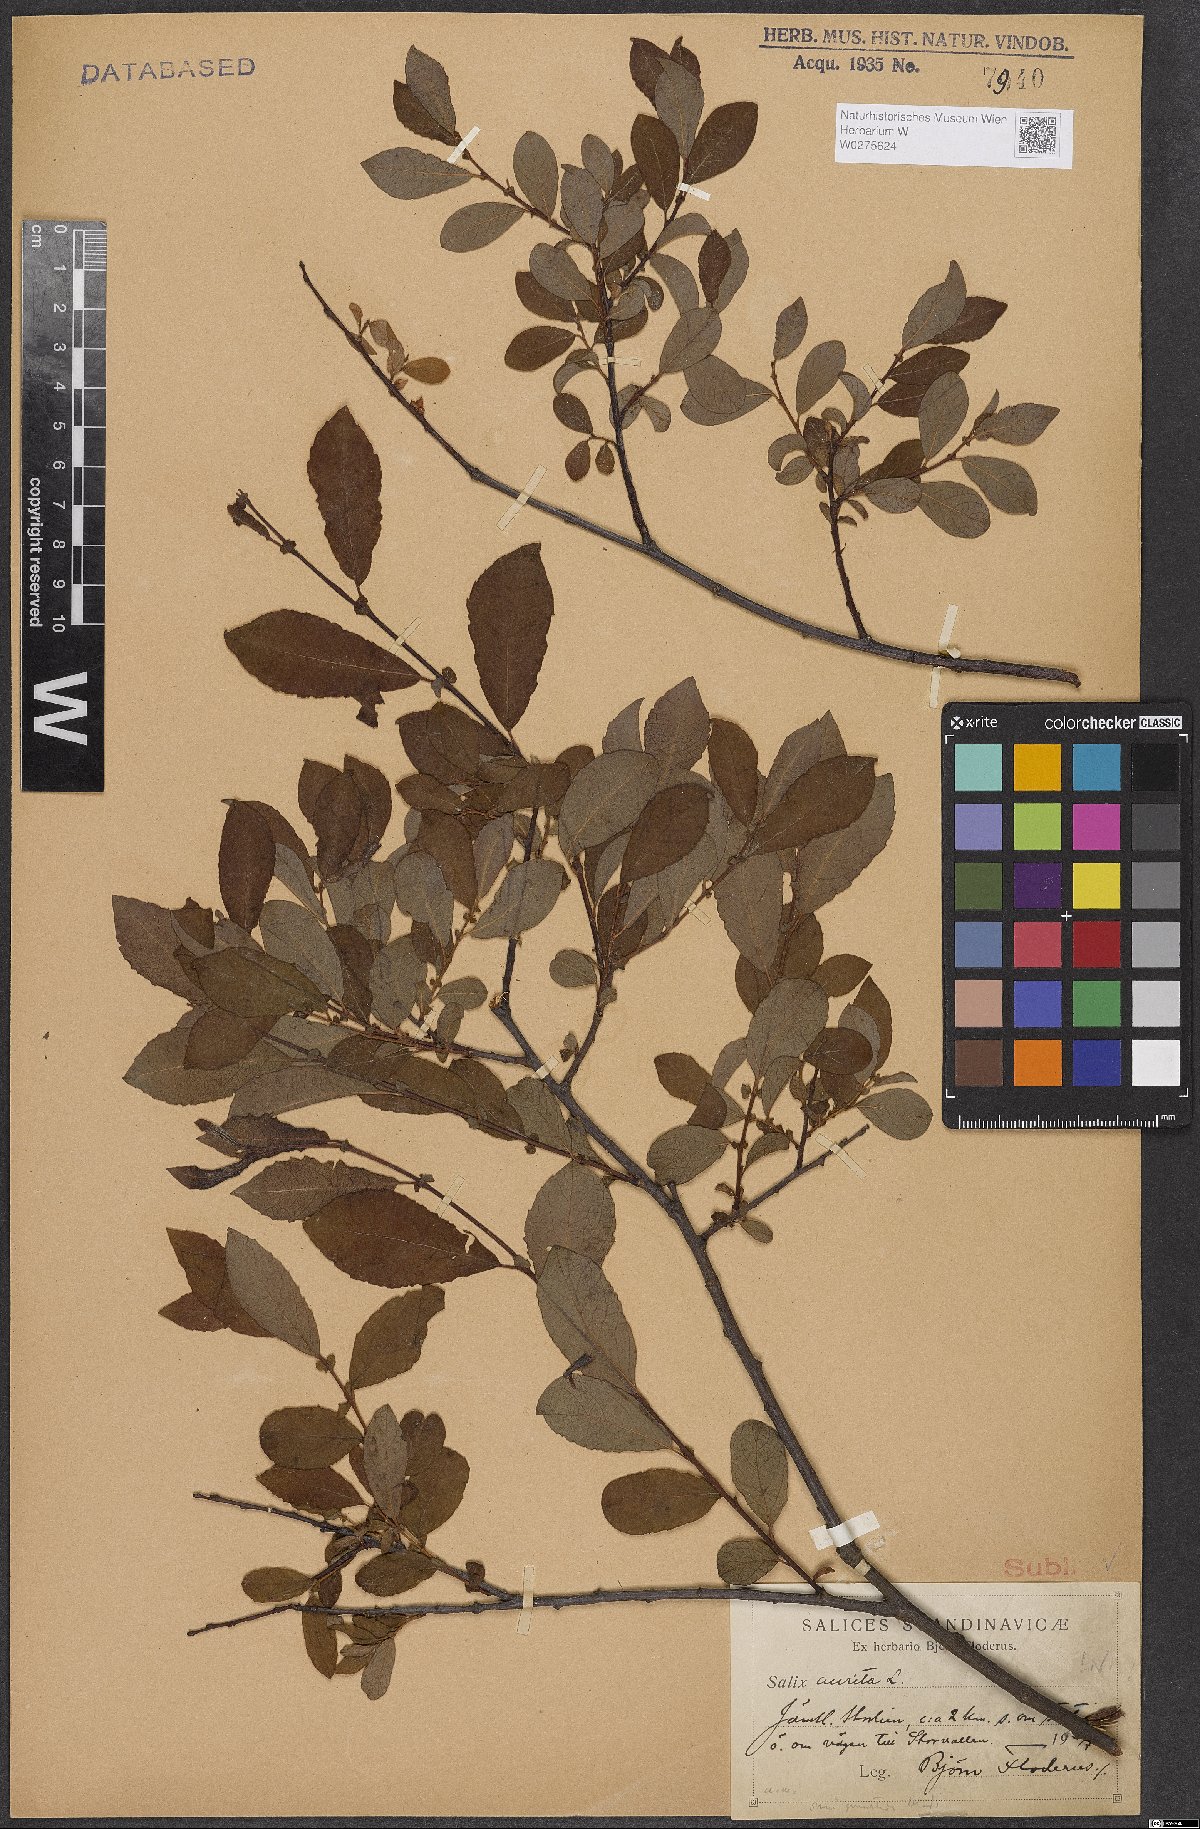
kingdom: Plantae
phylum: Tracheophyta
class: Magnoliopsida
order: Malpighiales
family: Salicaceae
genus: Salix
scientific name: Salix aurita
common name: Eared willow
